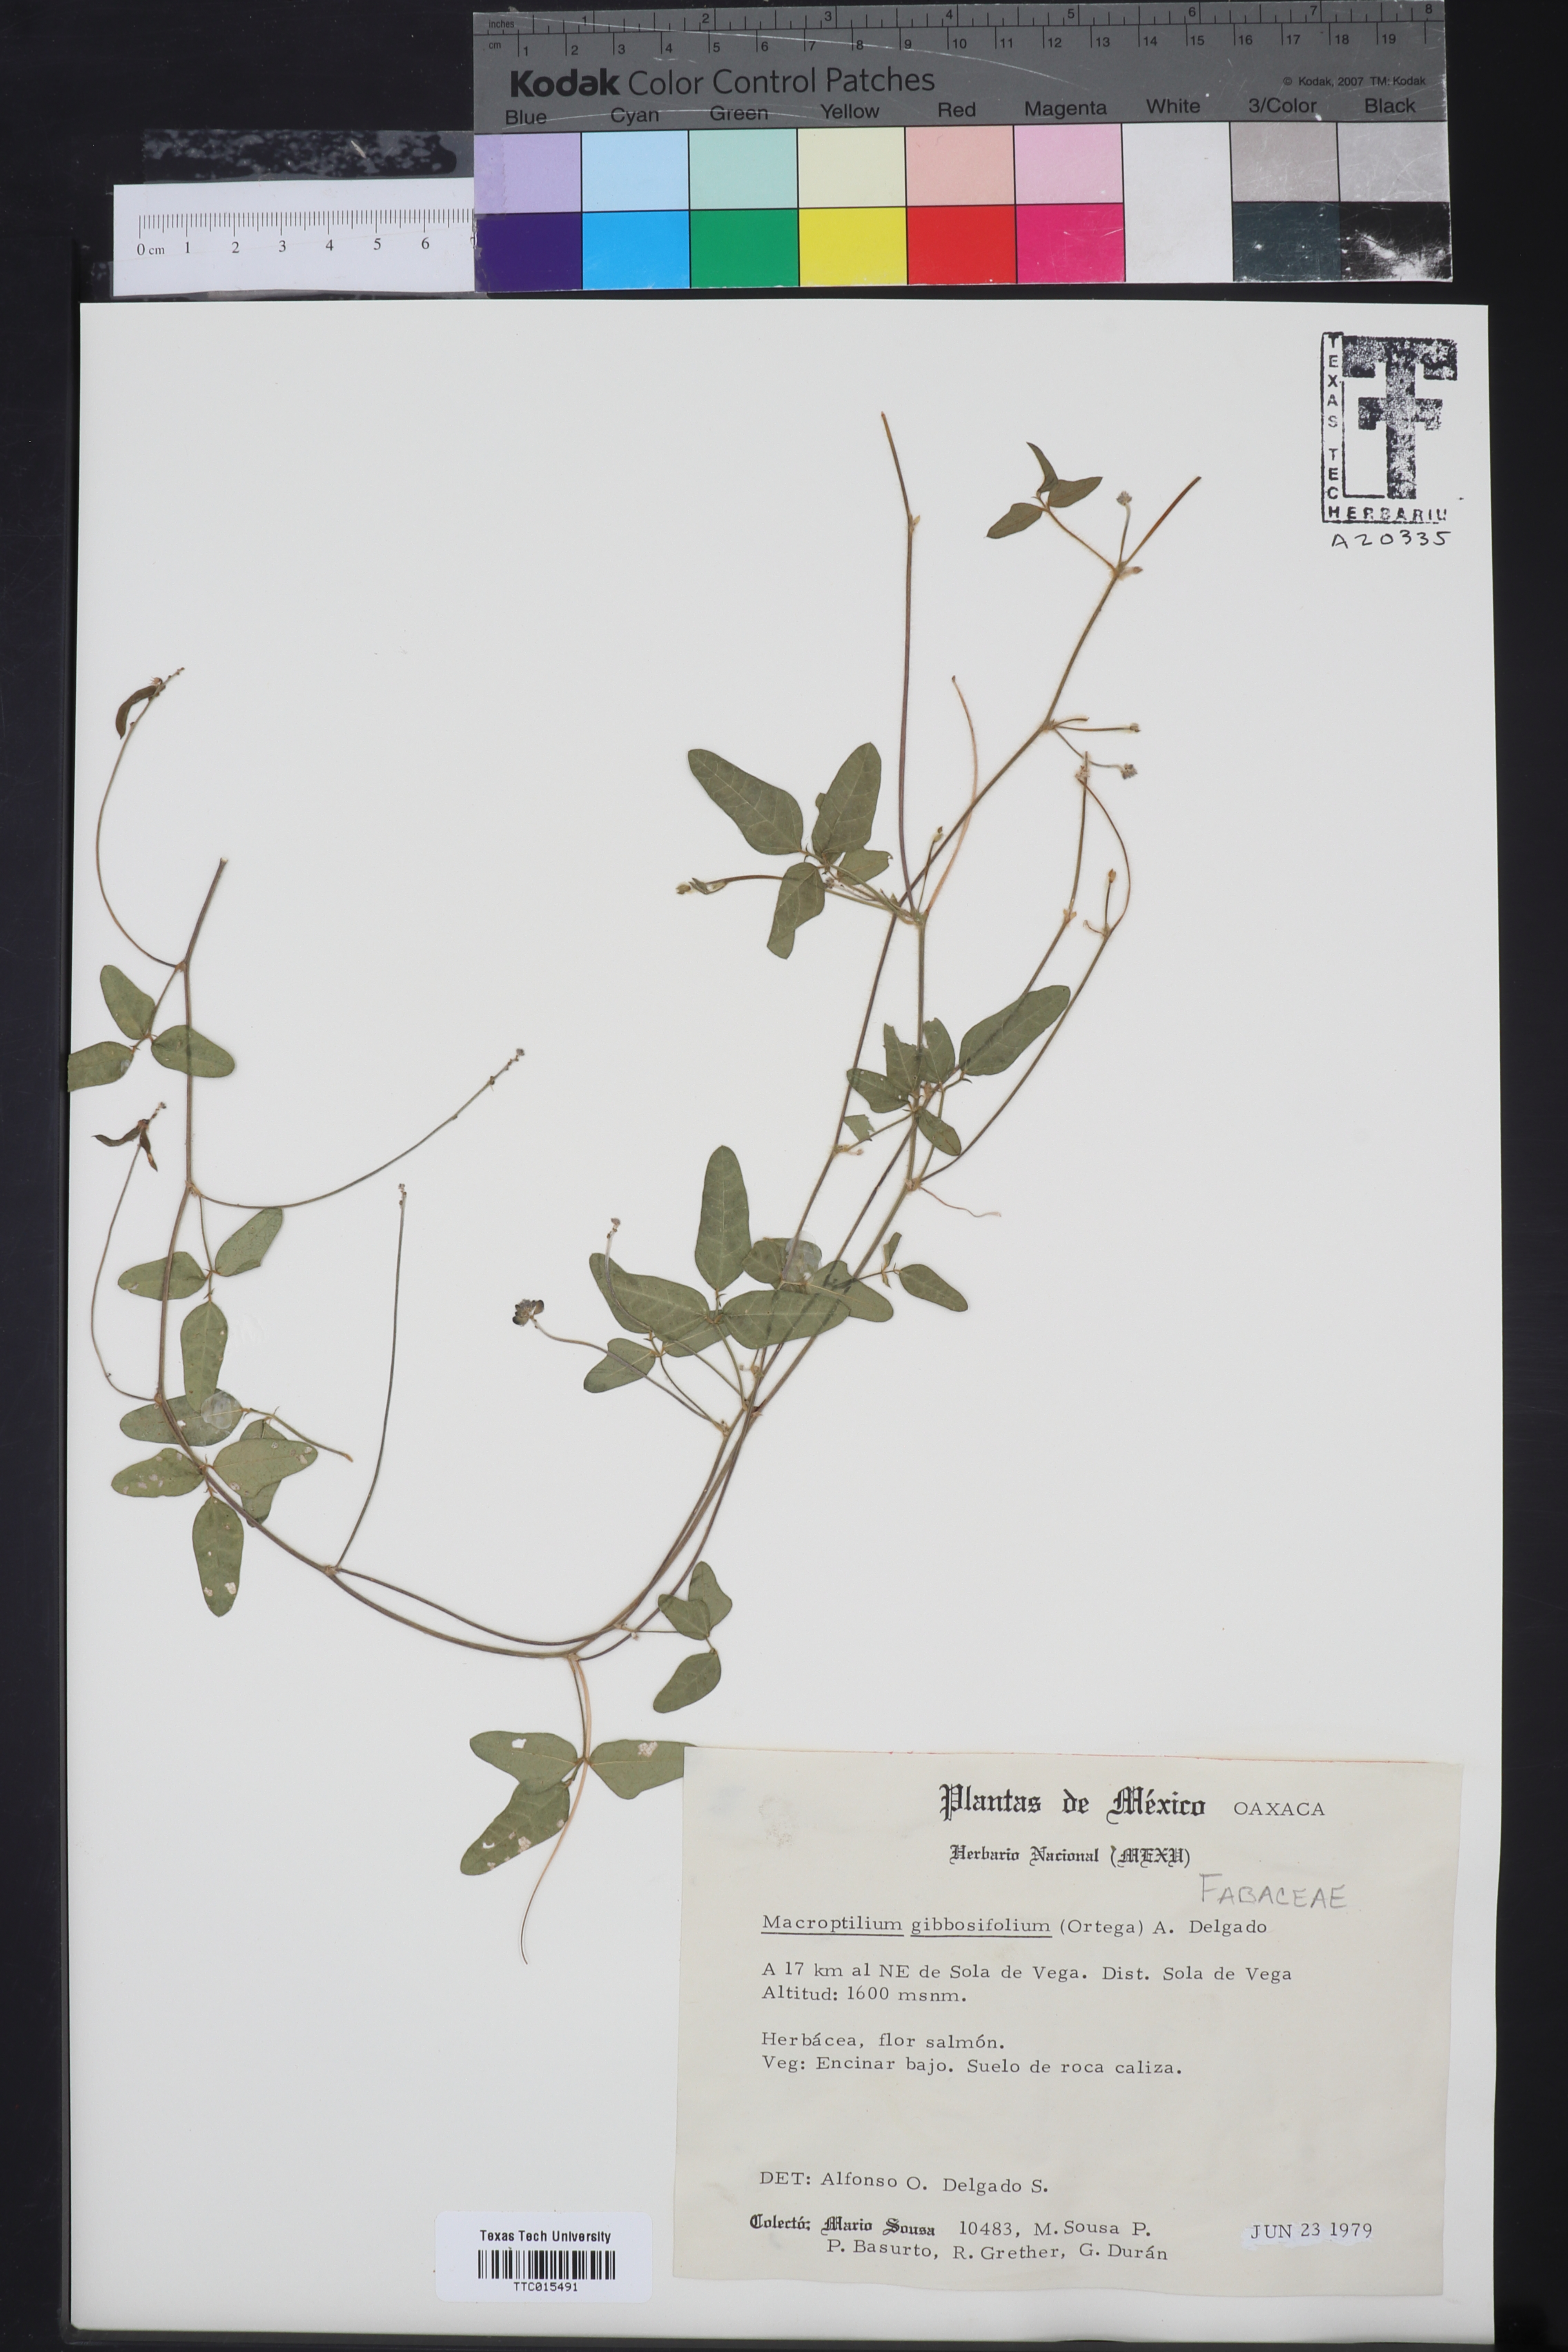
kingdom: Plantae
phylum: Tracheophyta
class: Magnoliopsida
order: Fabales
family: Fabaceae
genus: Macroptilium
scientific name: Macroptilium gibbosifolium
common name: Variableleaf bushbean
